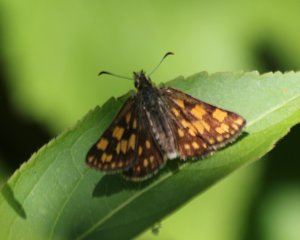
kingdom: Animalia
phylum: Arthropoda
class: Insecta
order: Lepidoptera
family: Hesperiidae
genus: Carterocephalus
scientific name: Carterocephalus palaemon
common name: Chequered Skipper
